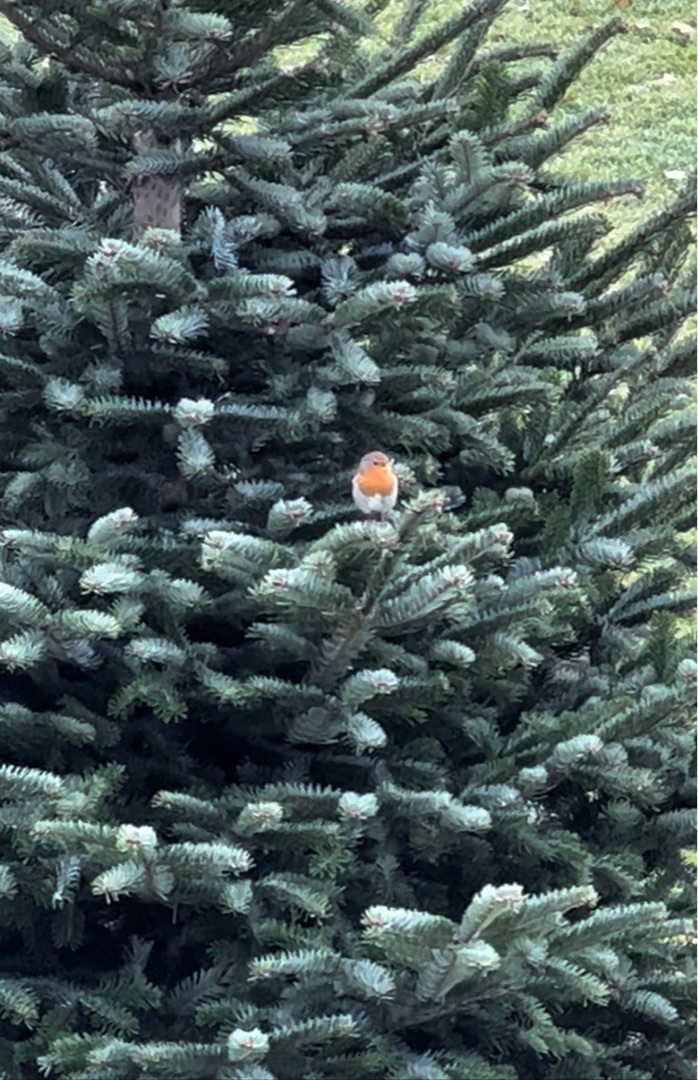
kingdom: Animalia
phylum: Chordata
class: Aves
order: Passeriformes
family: Muscicapidae
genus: Erithacus
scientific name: Erithacus rubecula
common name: Rødhals/rødkælk
